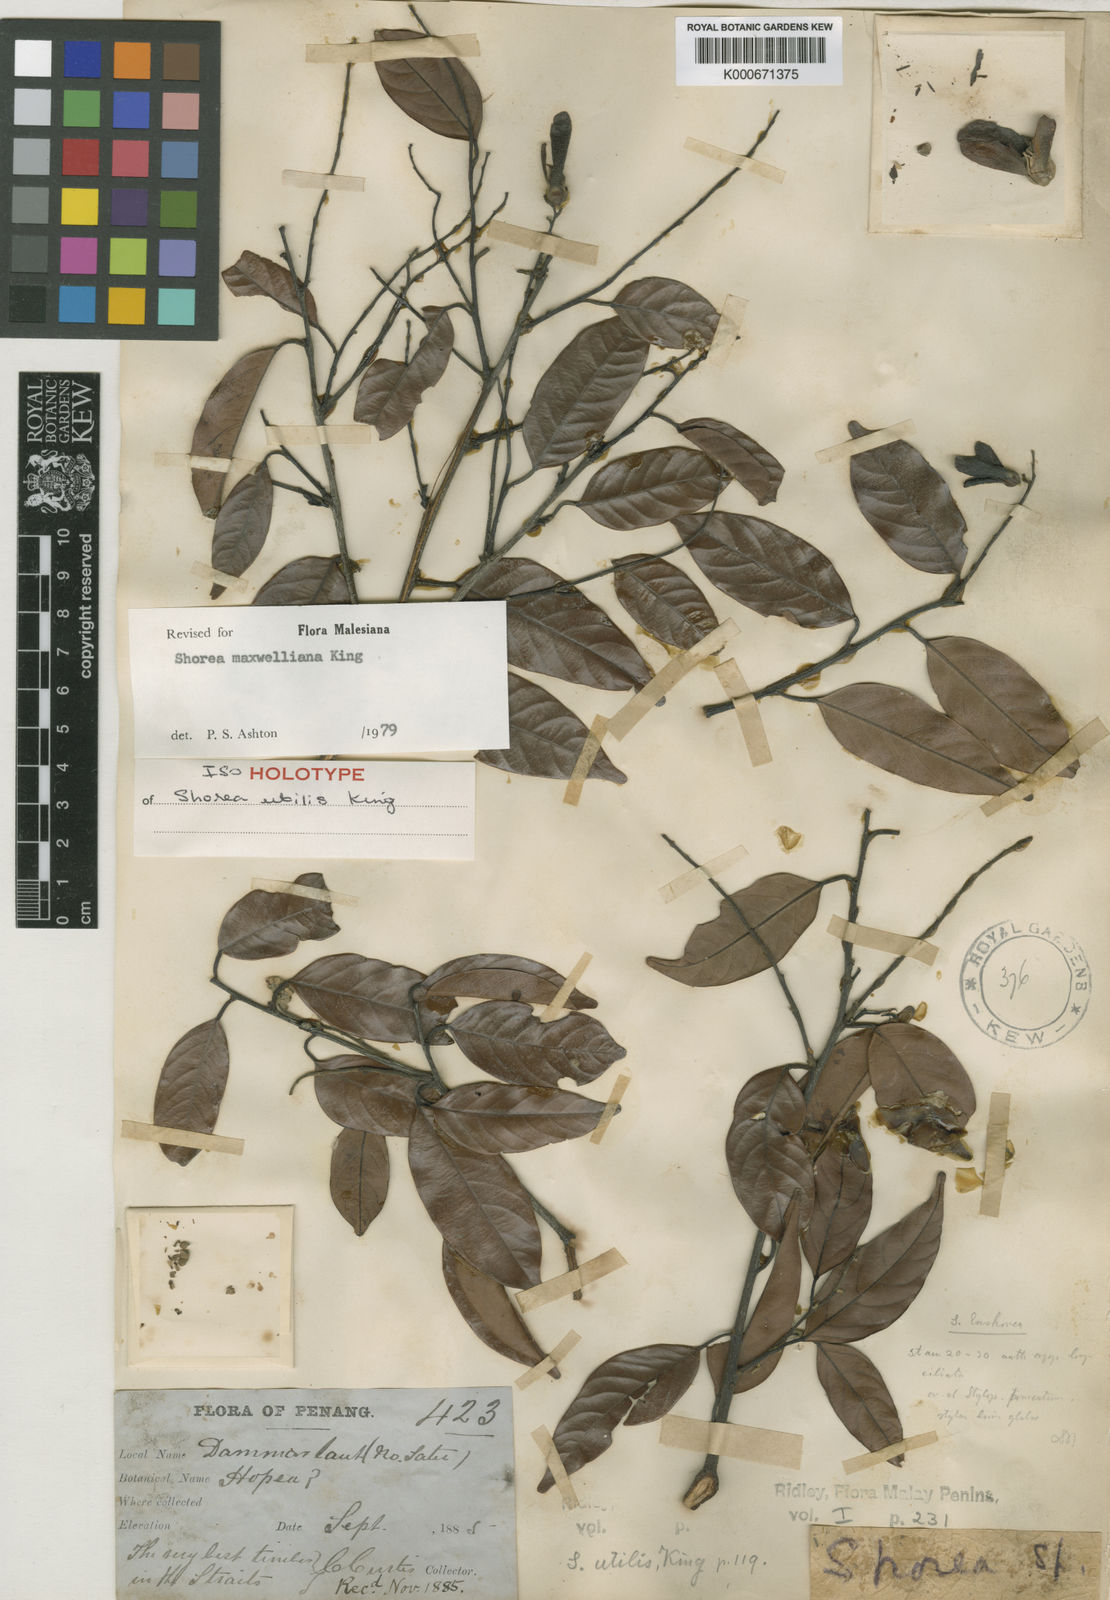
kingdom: Plantae
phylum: Tracheophyta
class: Magnoliopsida
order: Malvales
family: Dipterocarpaceae
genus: Shorea
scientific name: Shorea maxwelliana
